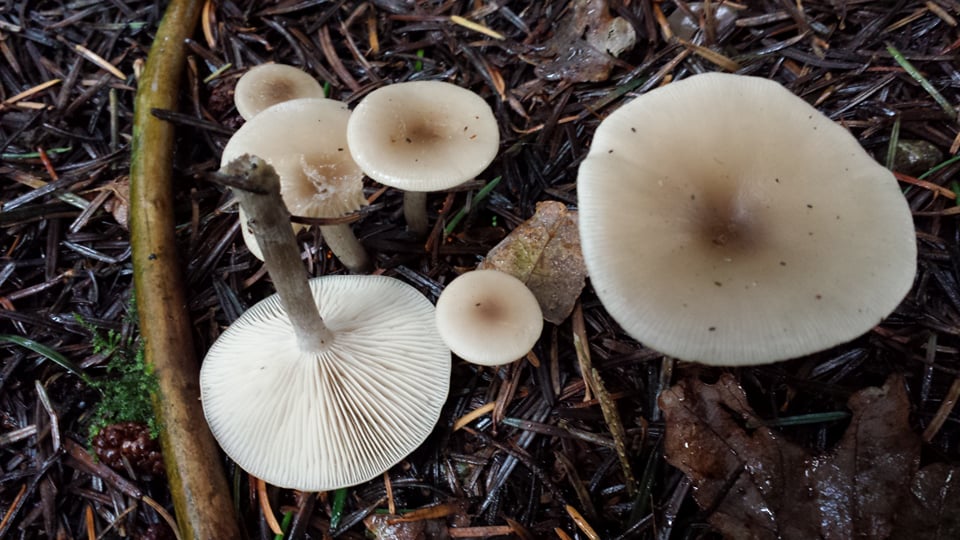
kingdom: Fungi
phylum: Basidiomycota
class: Agaricomycetes
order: Agaricales
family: Tricholomataceae
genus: Clitocybe
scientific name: Clitocybe metachroa
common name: grå tragthat
